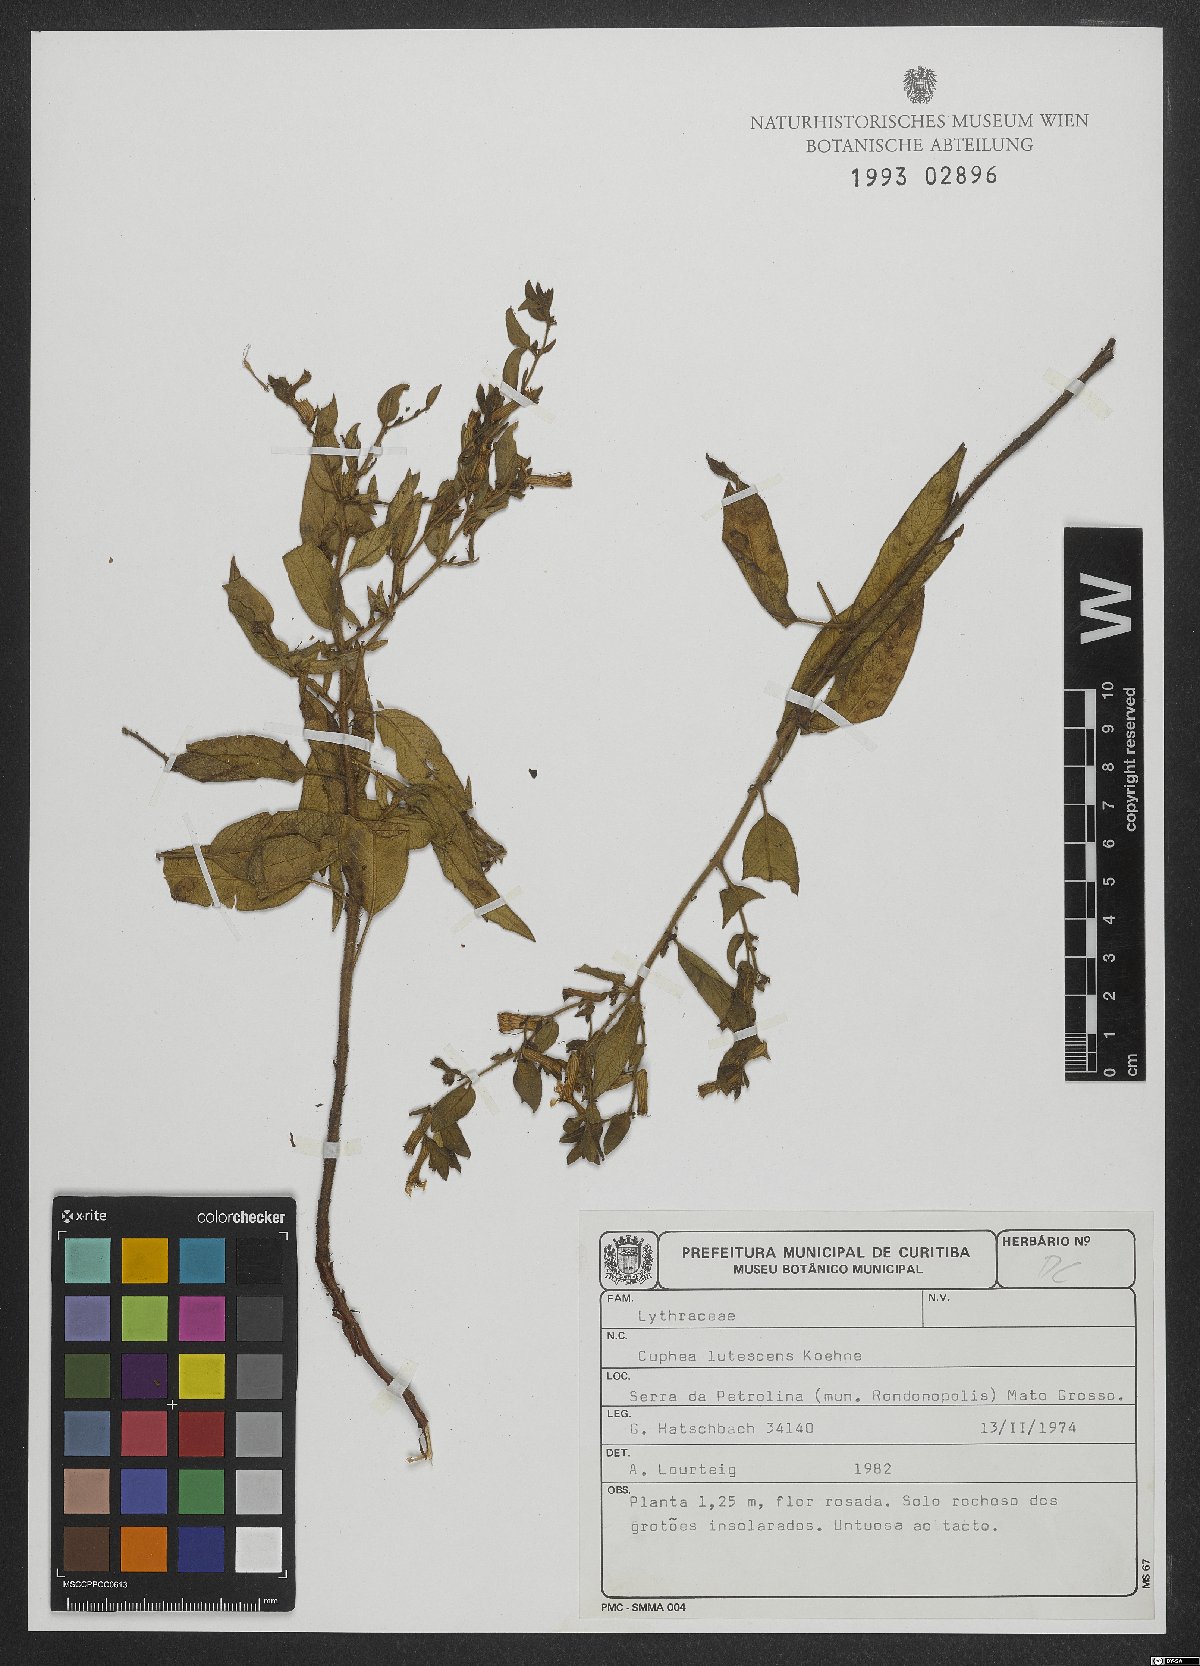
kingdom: Plantae
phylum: Tracheophyta
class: Magnoliopsida
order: Myrtales
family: Lythraceae
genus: Cuphea
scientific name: Cuphea lutescens
